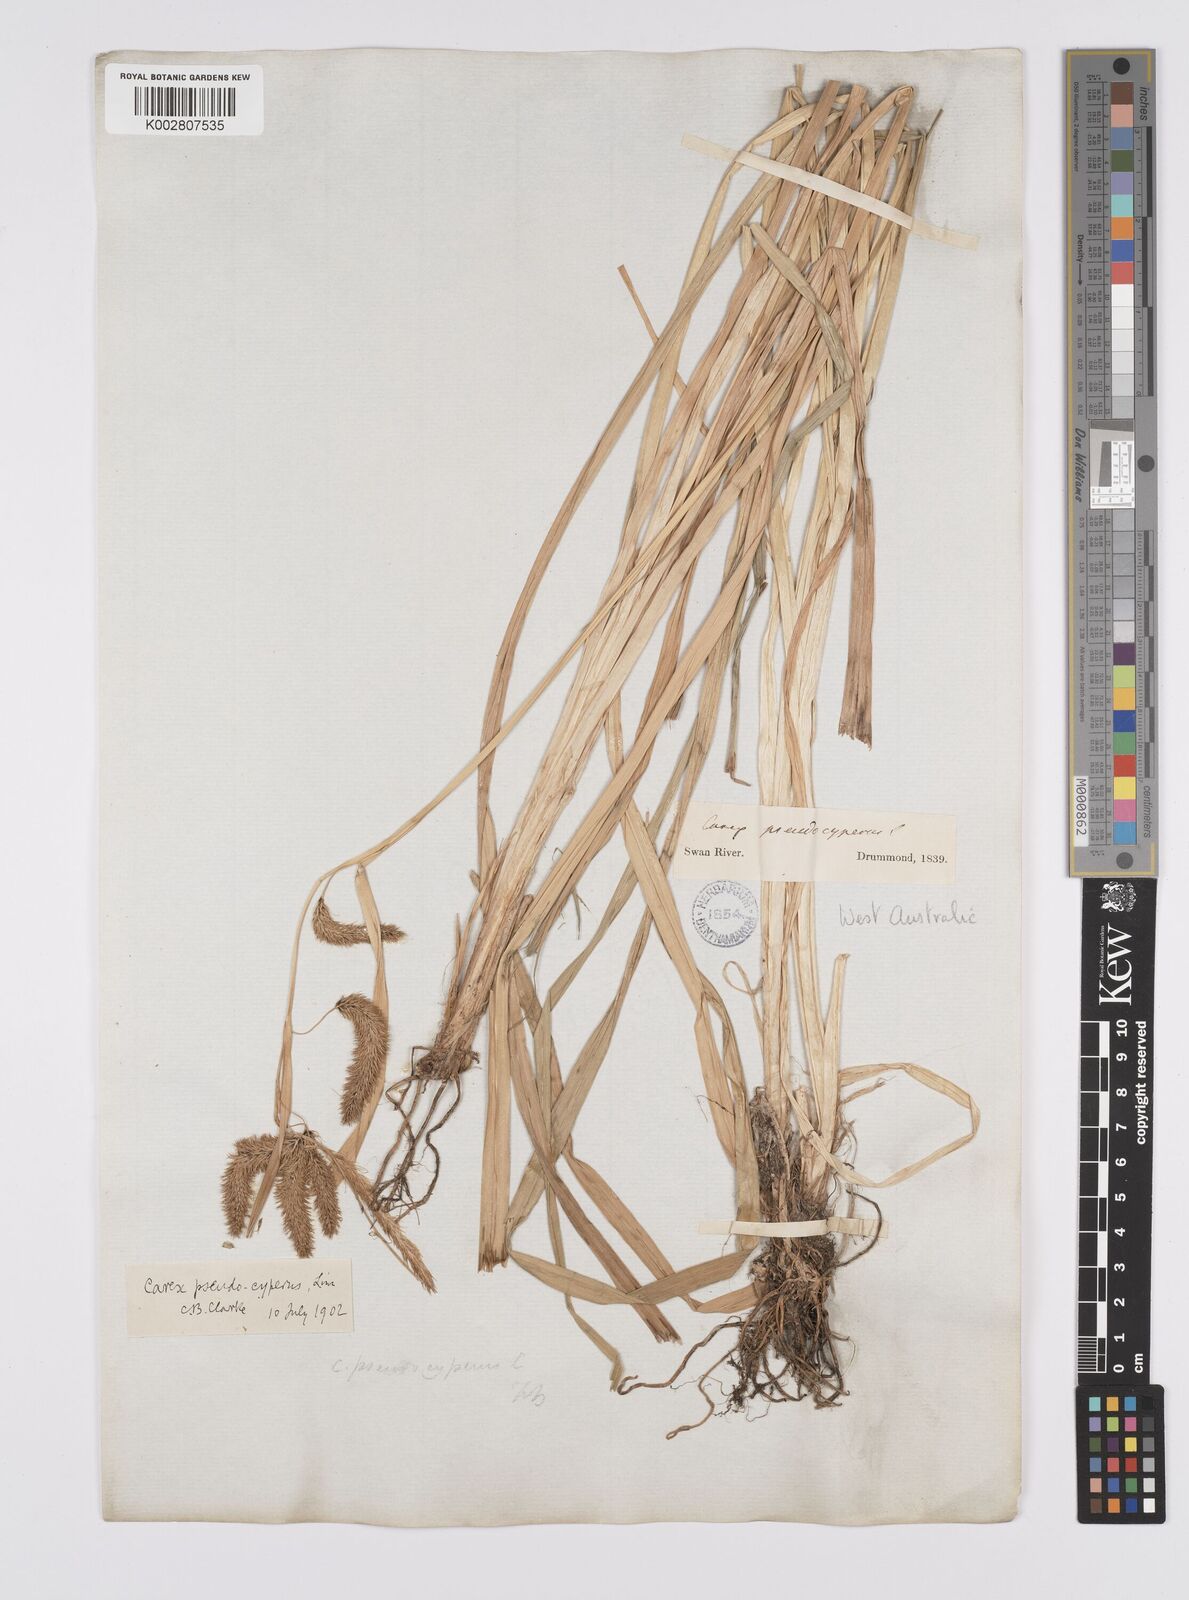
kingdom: Plantae
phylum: Tracheophyta
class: Liliopsida
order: Poales
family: Cyperaceae
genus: Carex
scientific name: Carex cespitosa
